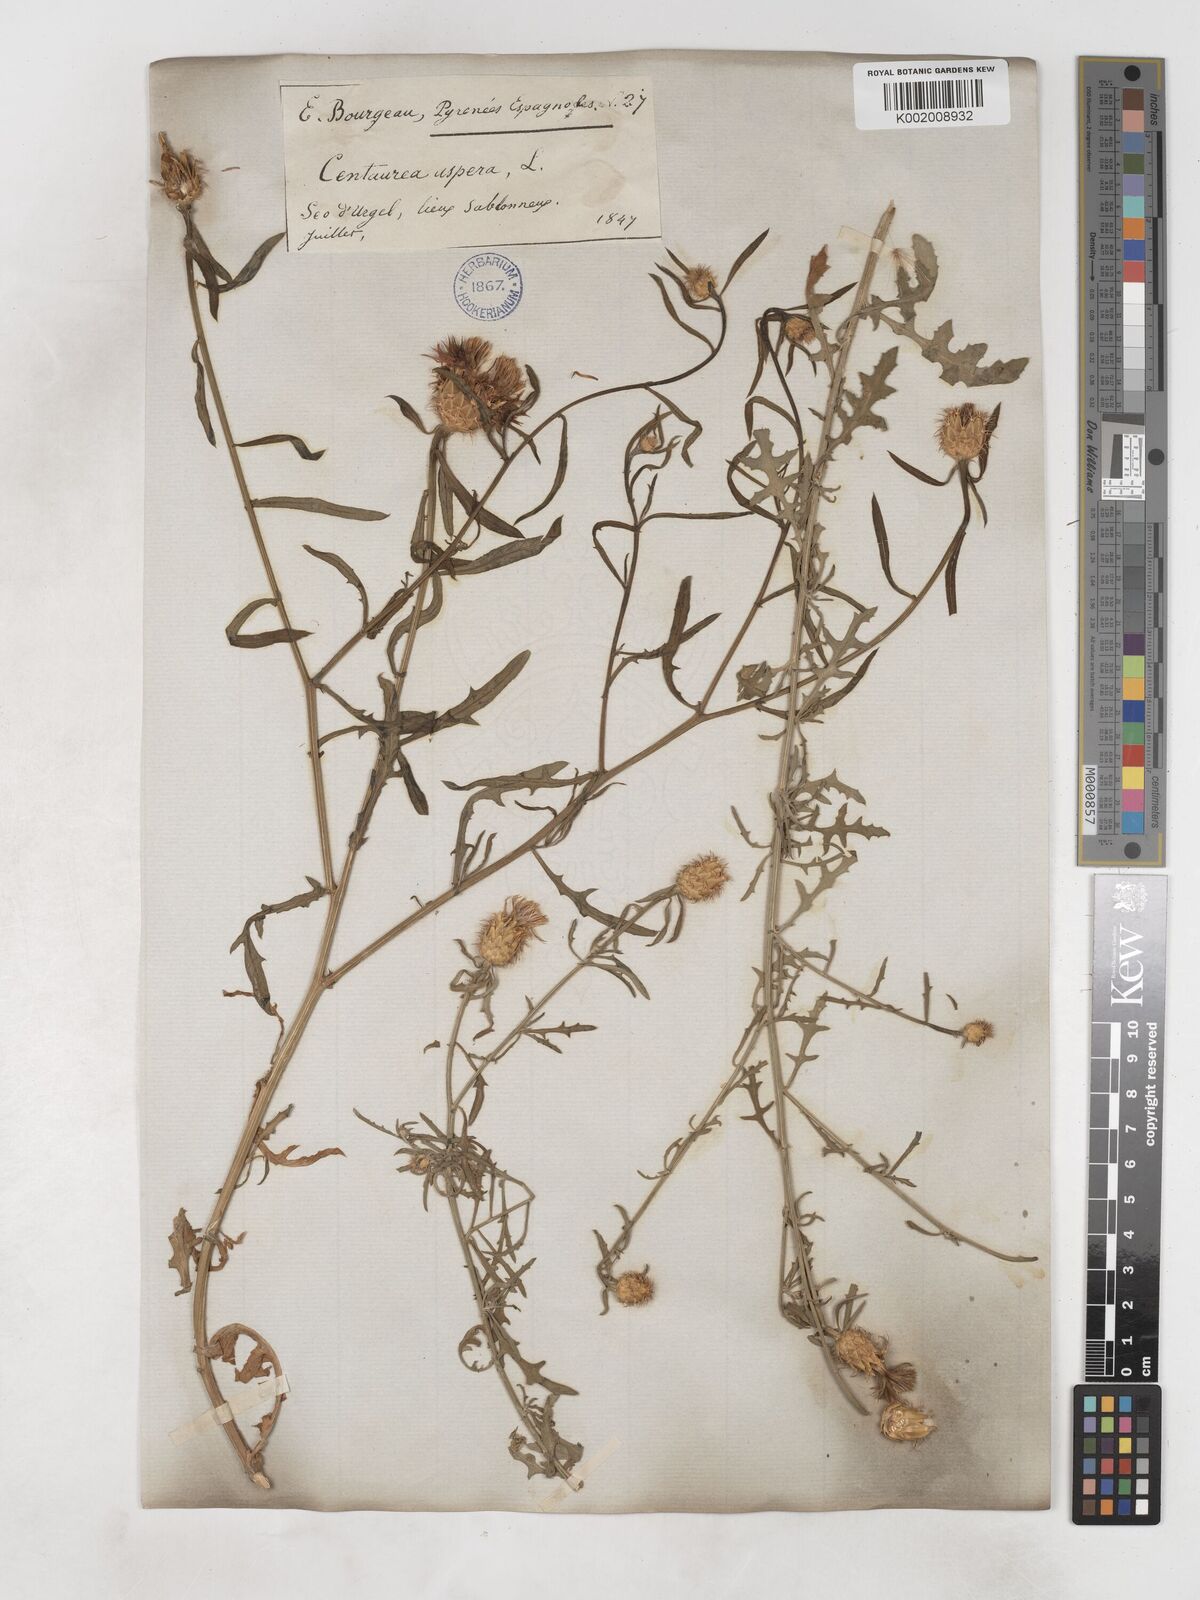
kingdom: Plantae
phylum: Tracheophyta
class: Magnoliopsida
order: Asterales
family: Asteraceae
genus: Centaurea
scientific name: Centaurea aspera
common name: Rough star-thistle
